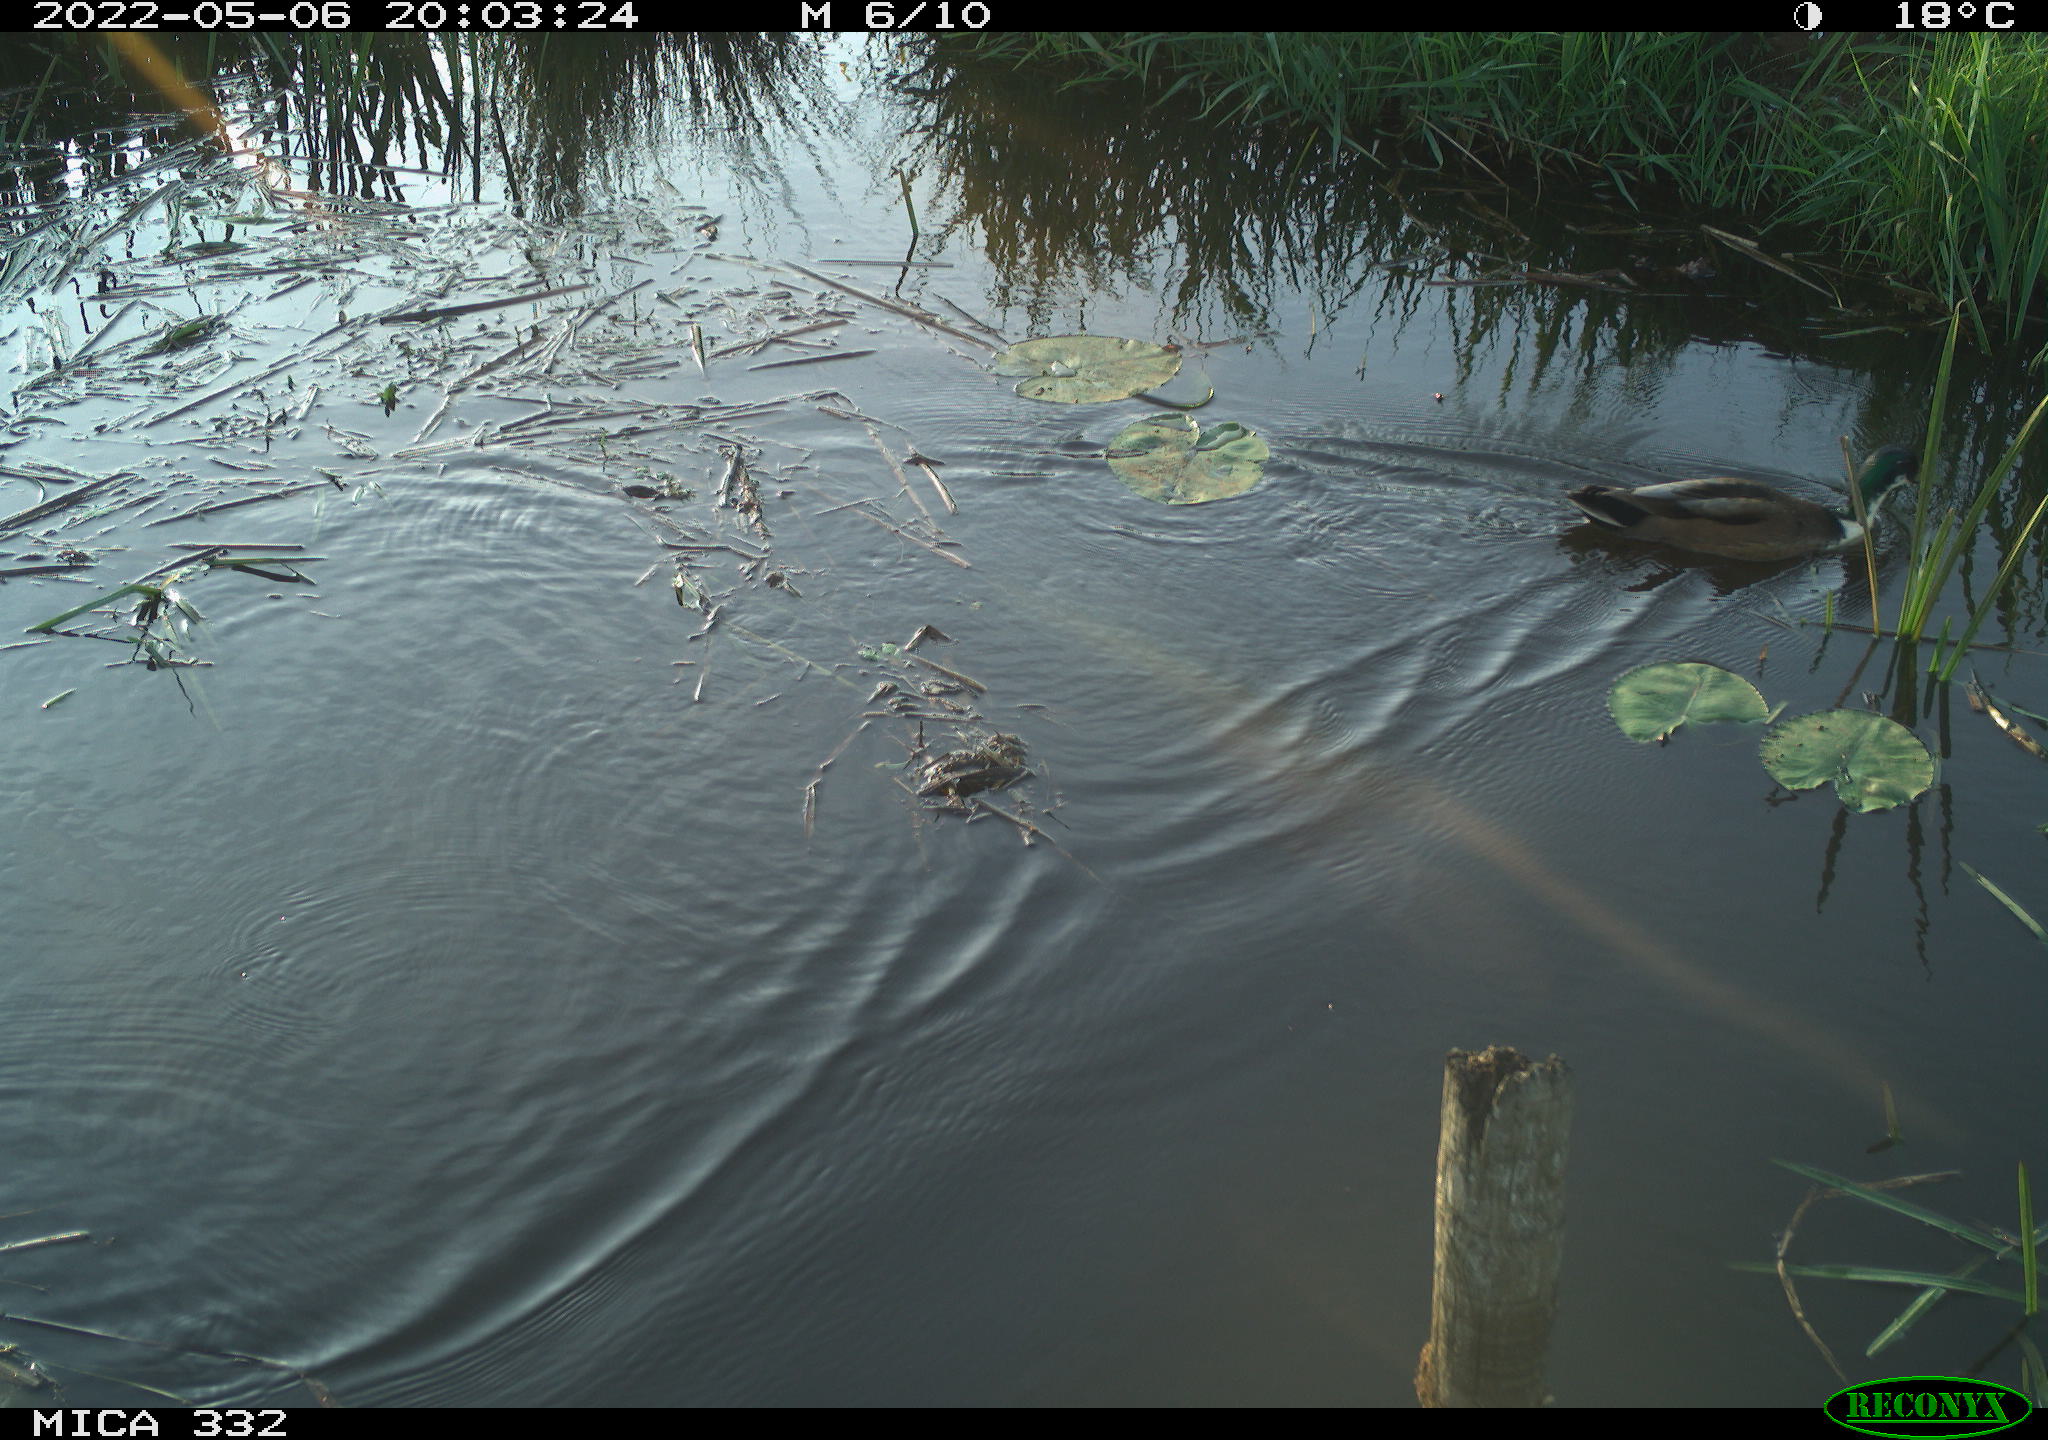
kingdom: Animalia
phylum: Chordata
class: Aves
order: Anseriformes
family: Anatidae
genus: Anas
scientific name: Anas platyrhynchos
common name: Mallard
